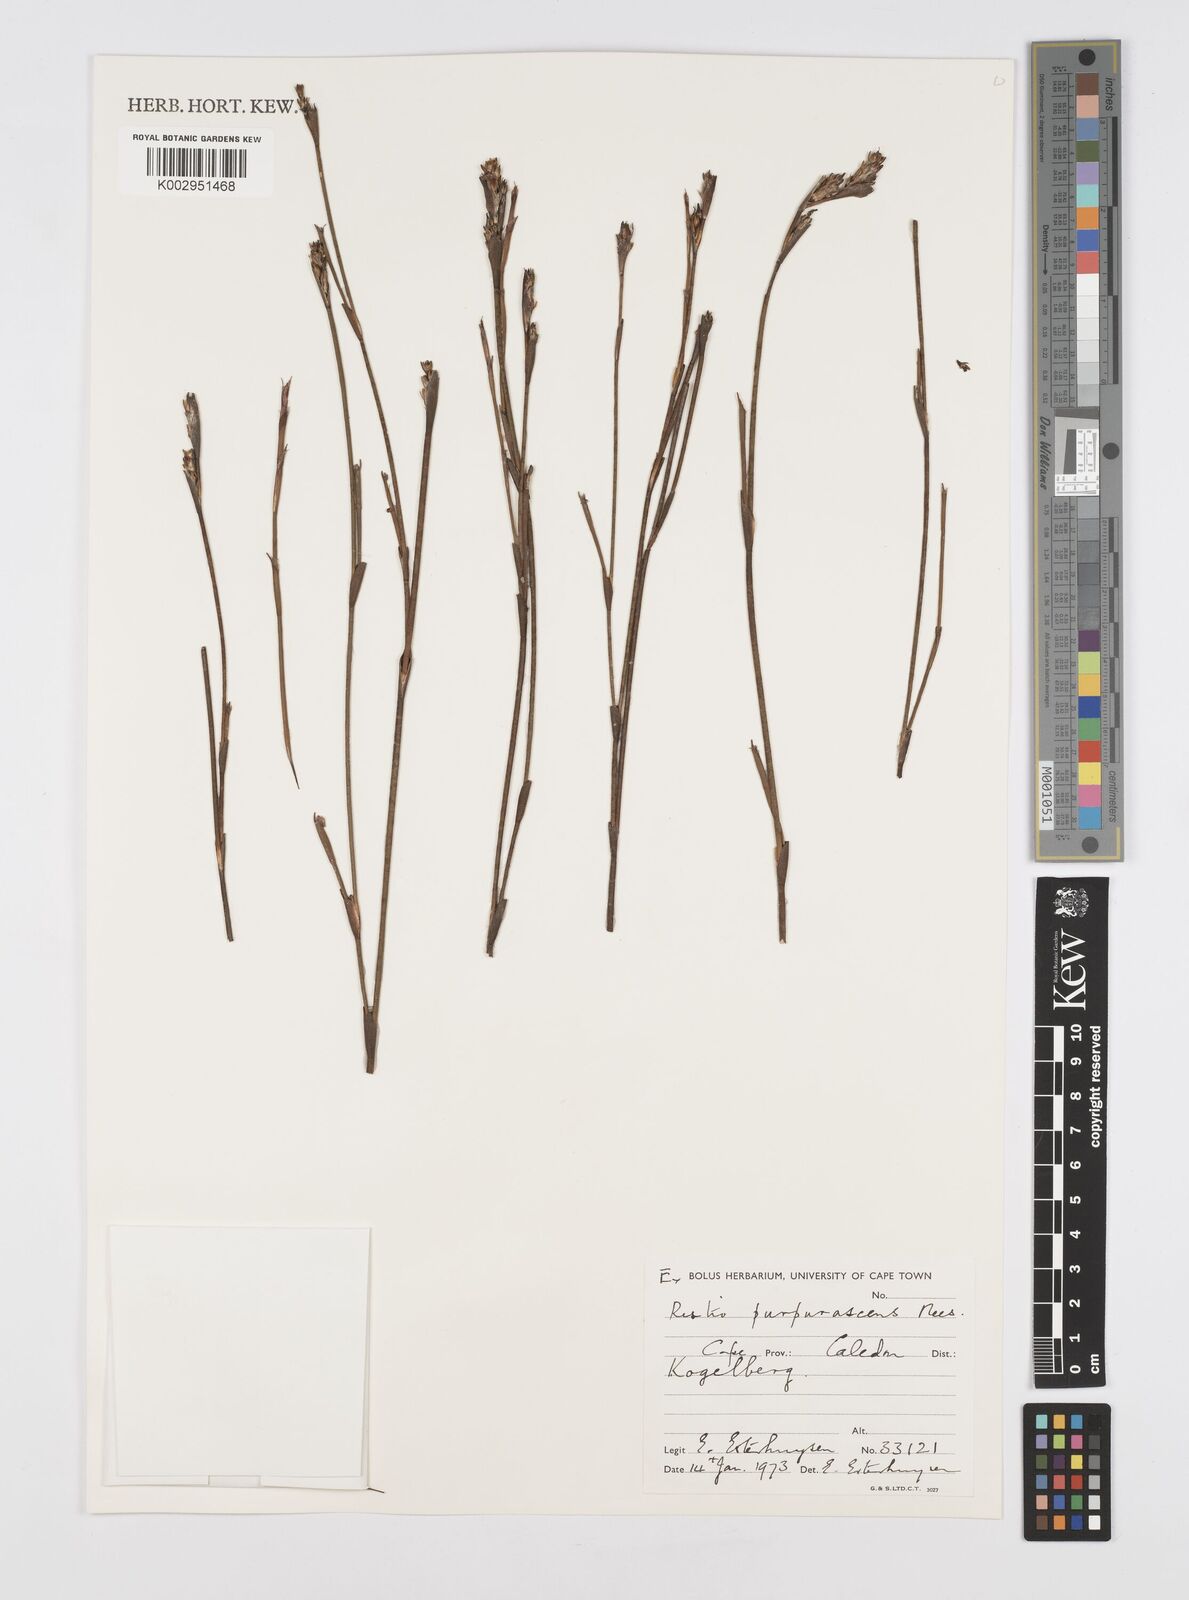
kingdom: Plantae
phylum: Tracheophyta
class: Liliopsida
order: Poales
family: Restionaceae
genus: Restio
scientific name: Restio purpurascens
